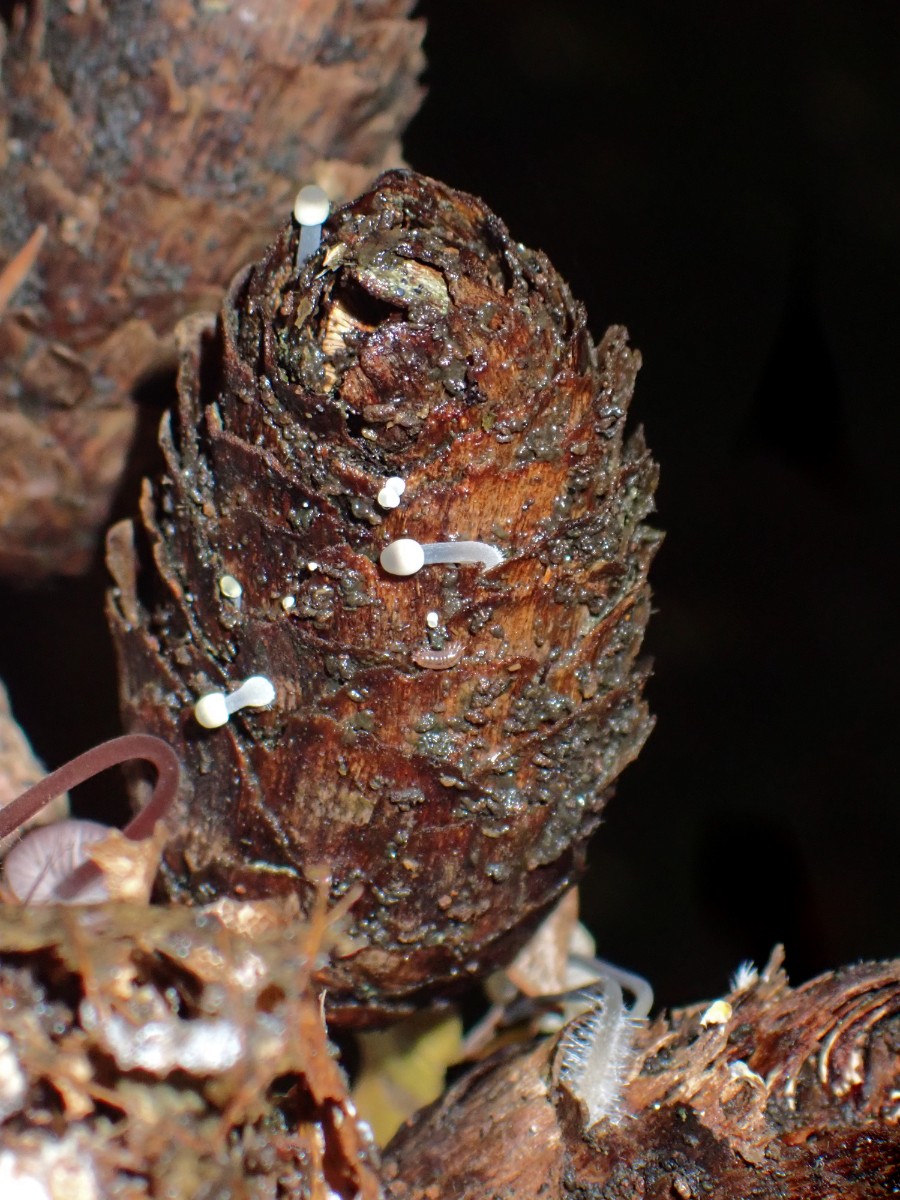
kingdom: Fungi
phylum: Basidiomycota
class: Agaricomycetes
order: Agaricales
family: Mycenaceae
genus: Mycena
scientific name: Mycena arcangeliana
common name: oliven-huesvamp
